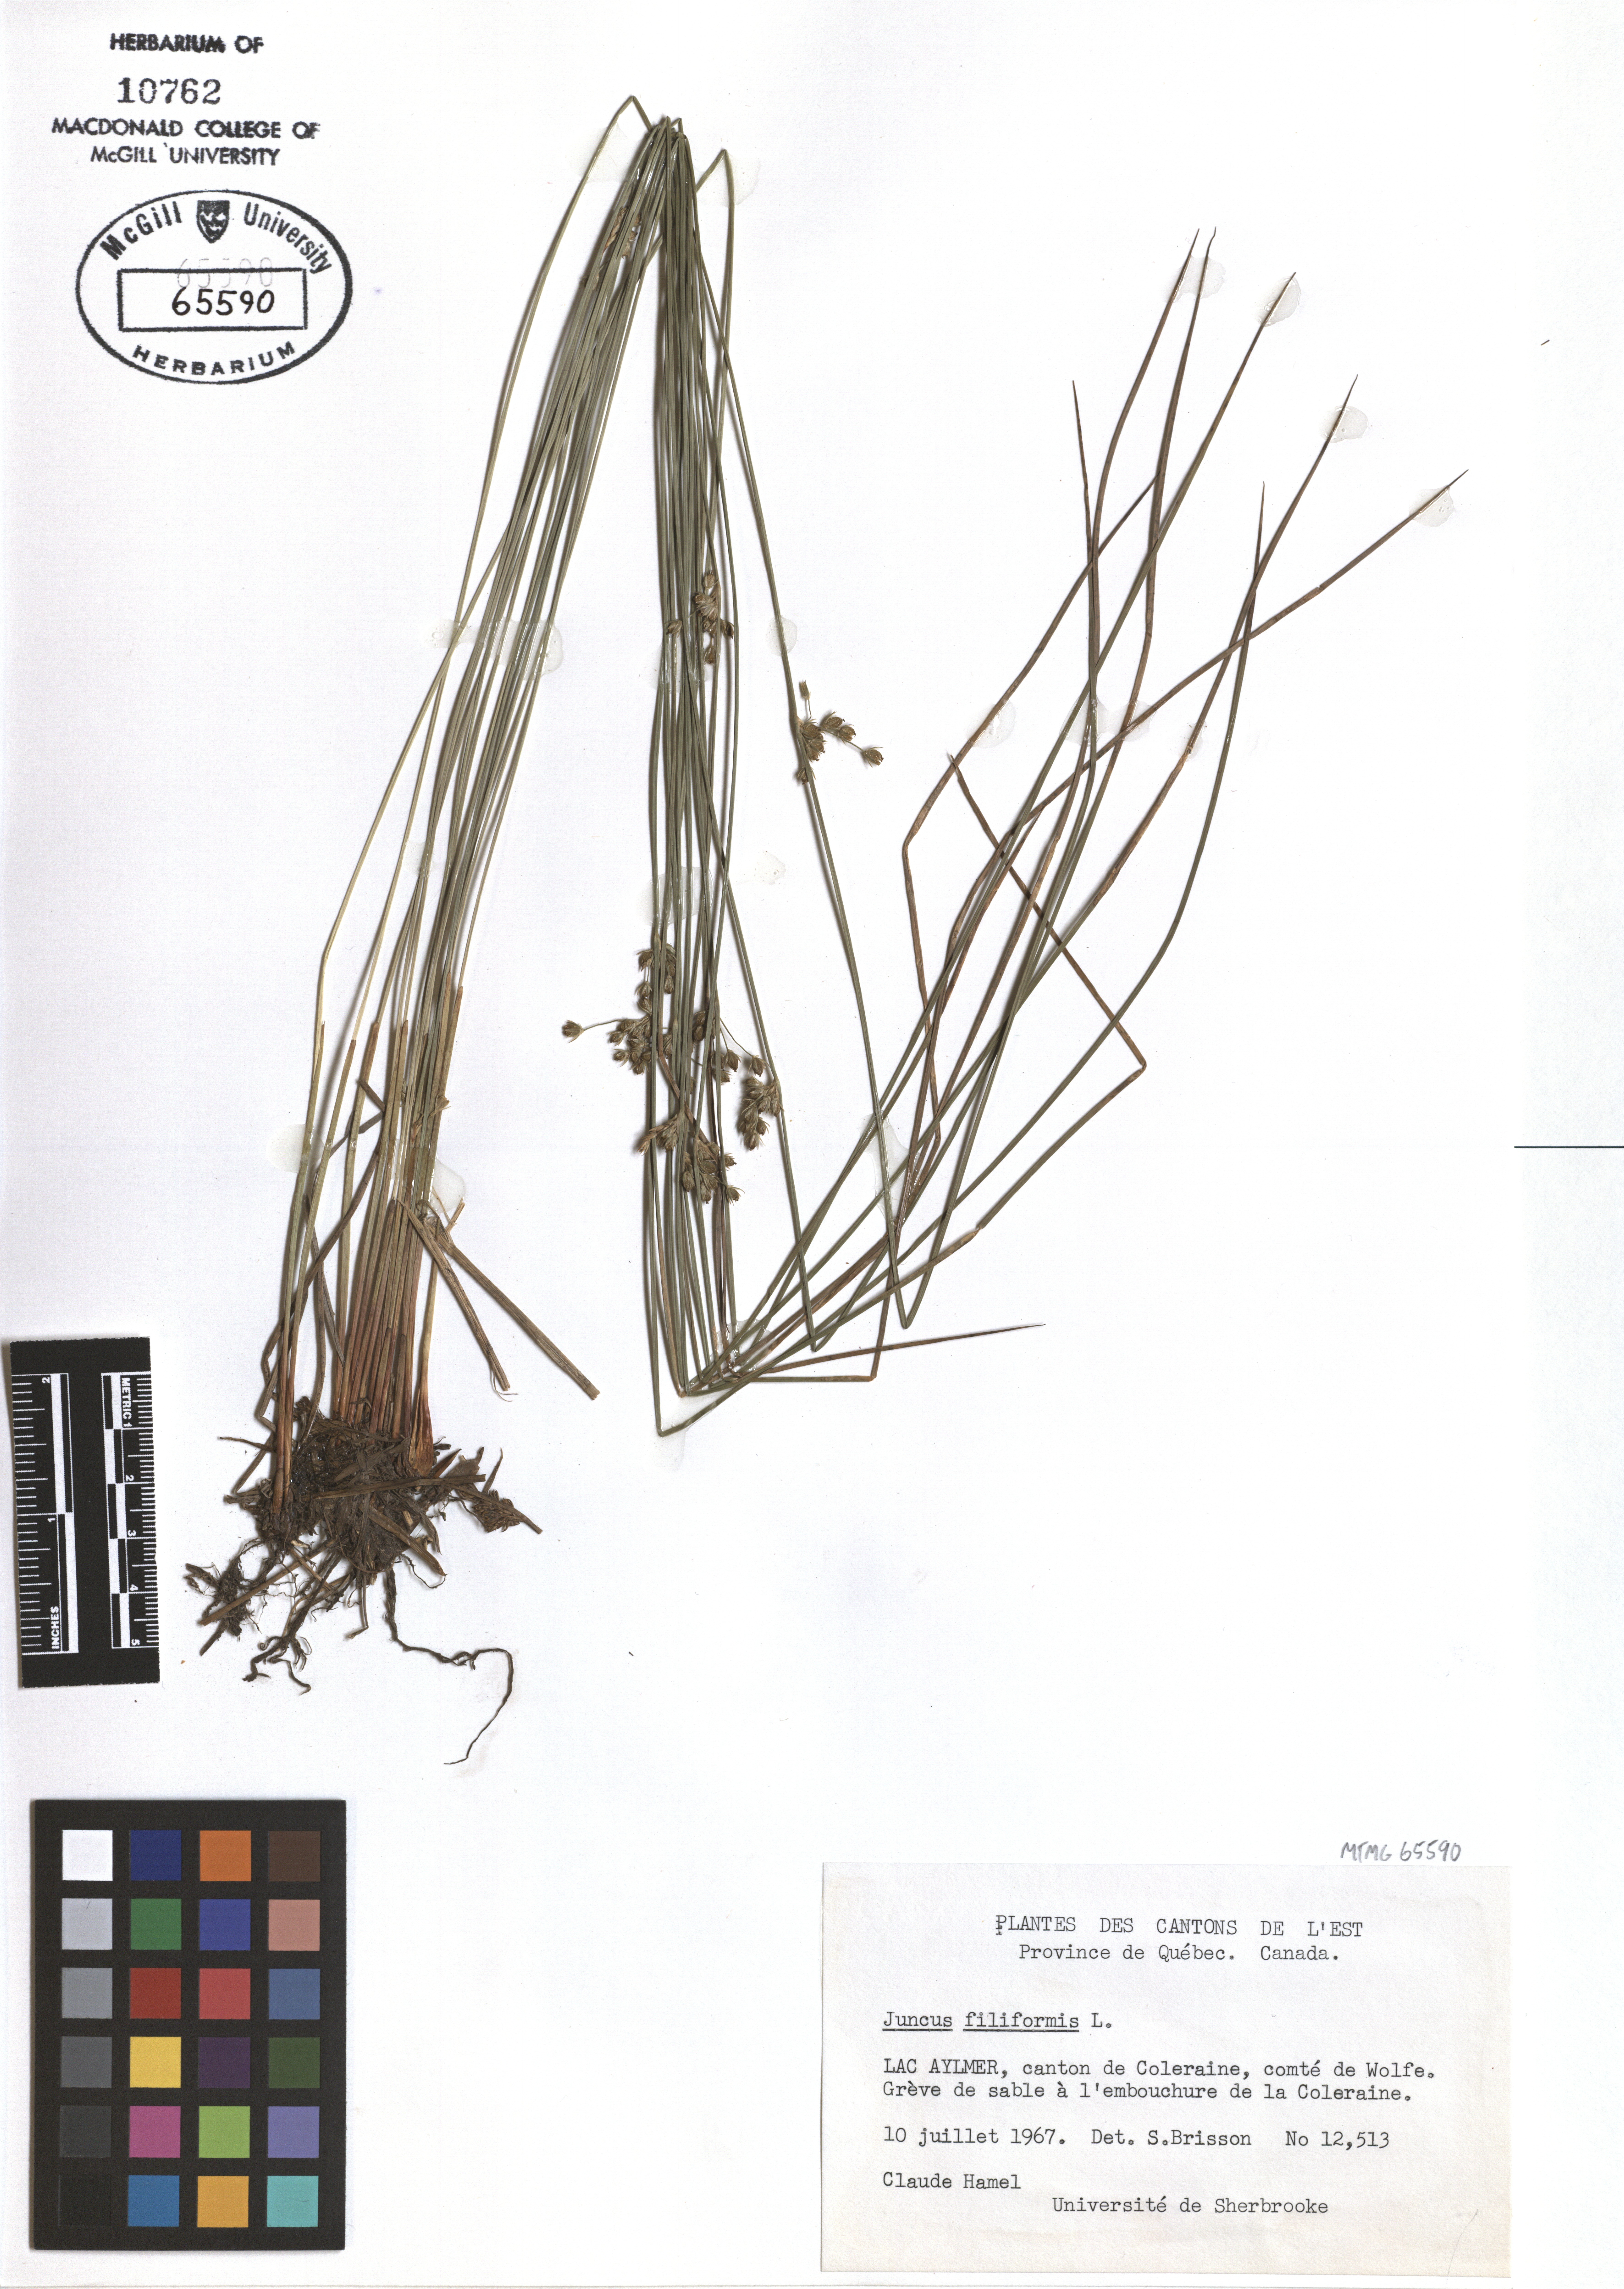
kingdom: Plantae
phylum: Tracheophyta
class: Liliopsida
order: Poales
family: Juncaceae
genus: Juncus
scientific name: Juncus filiformis
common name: Thread rush
